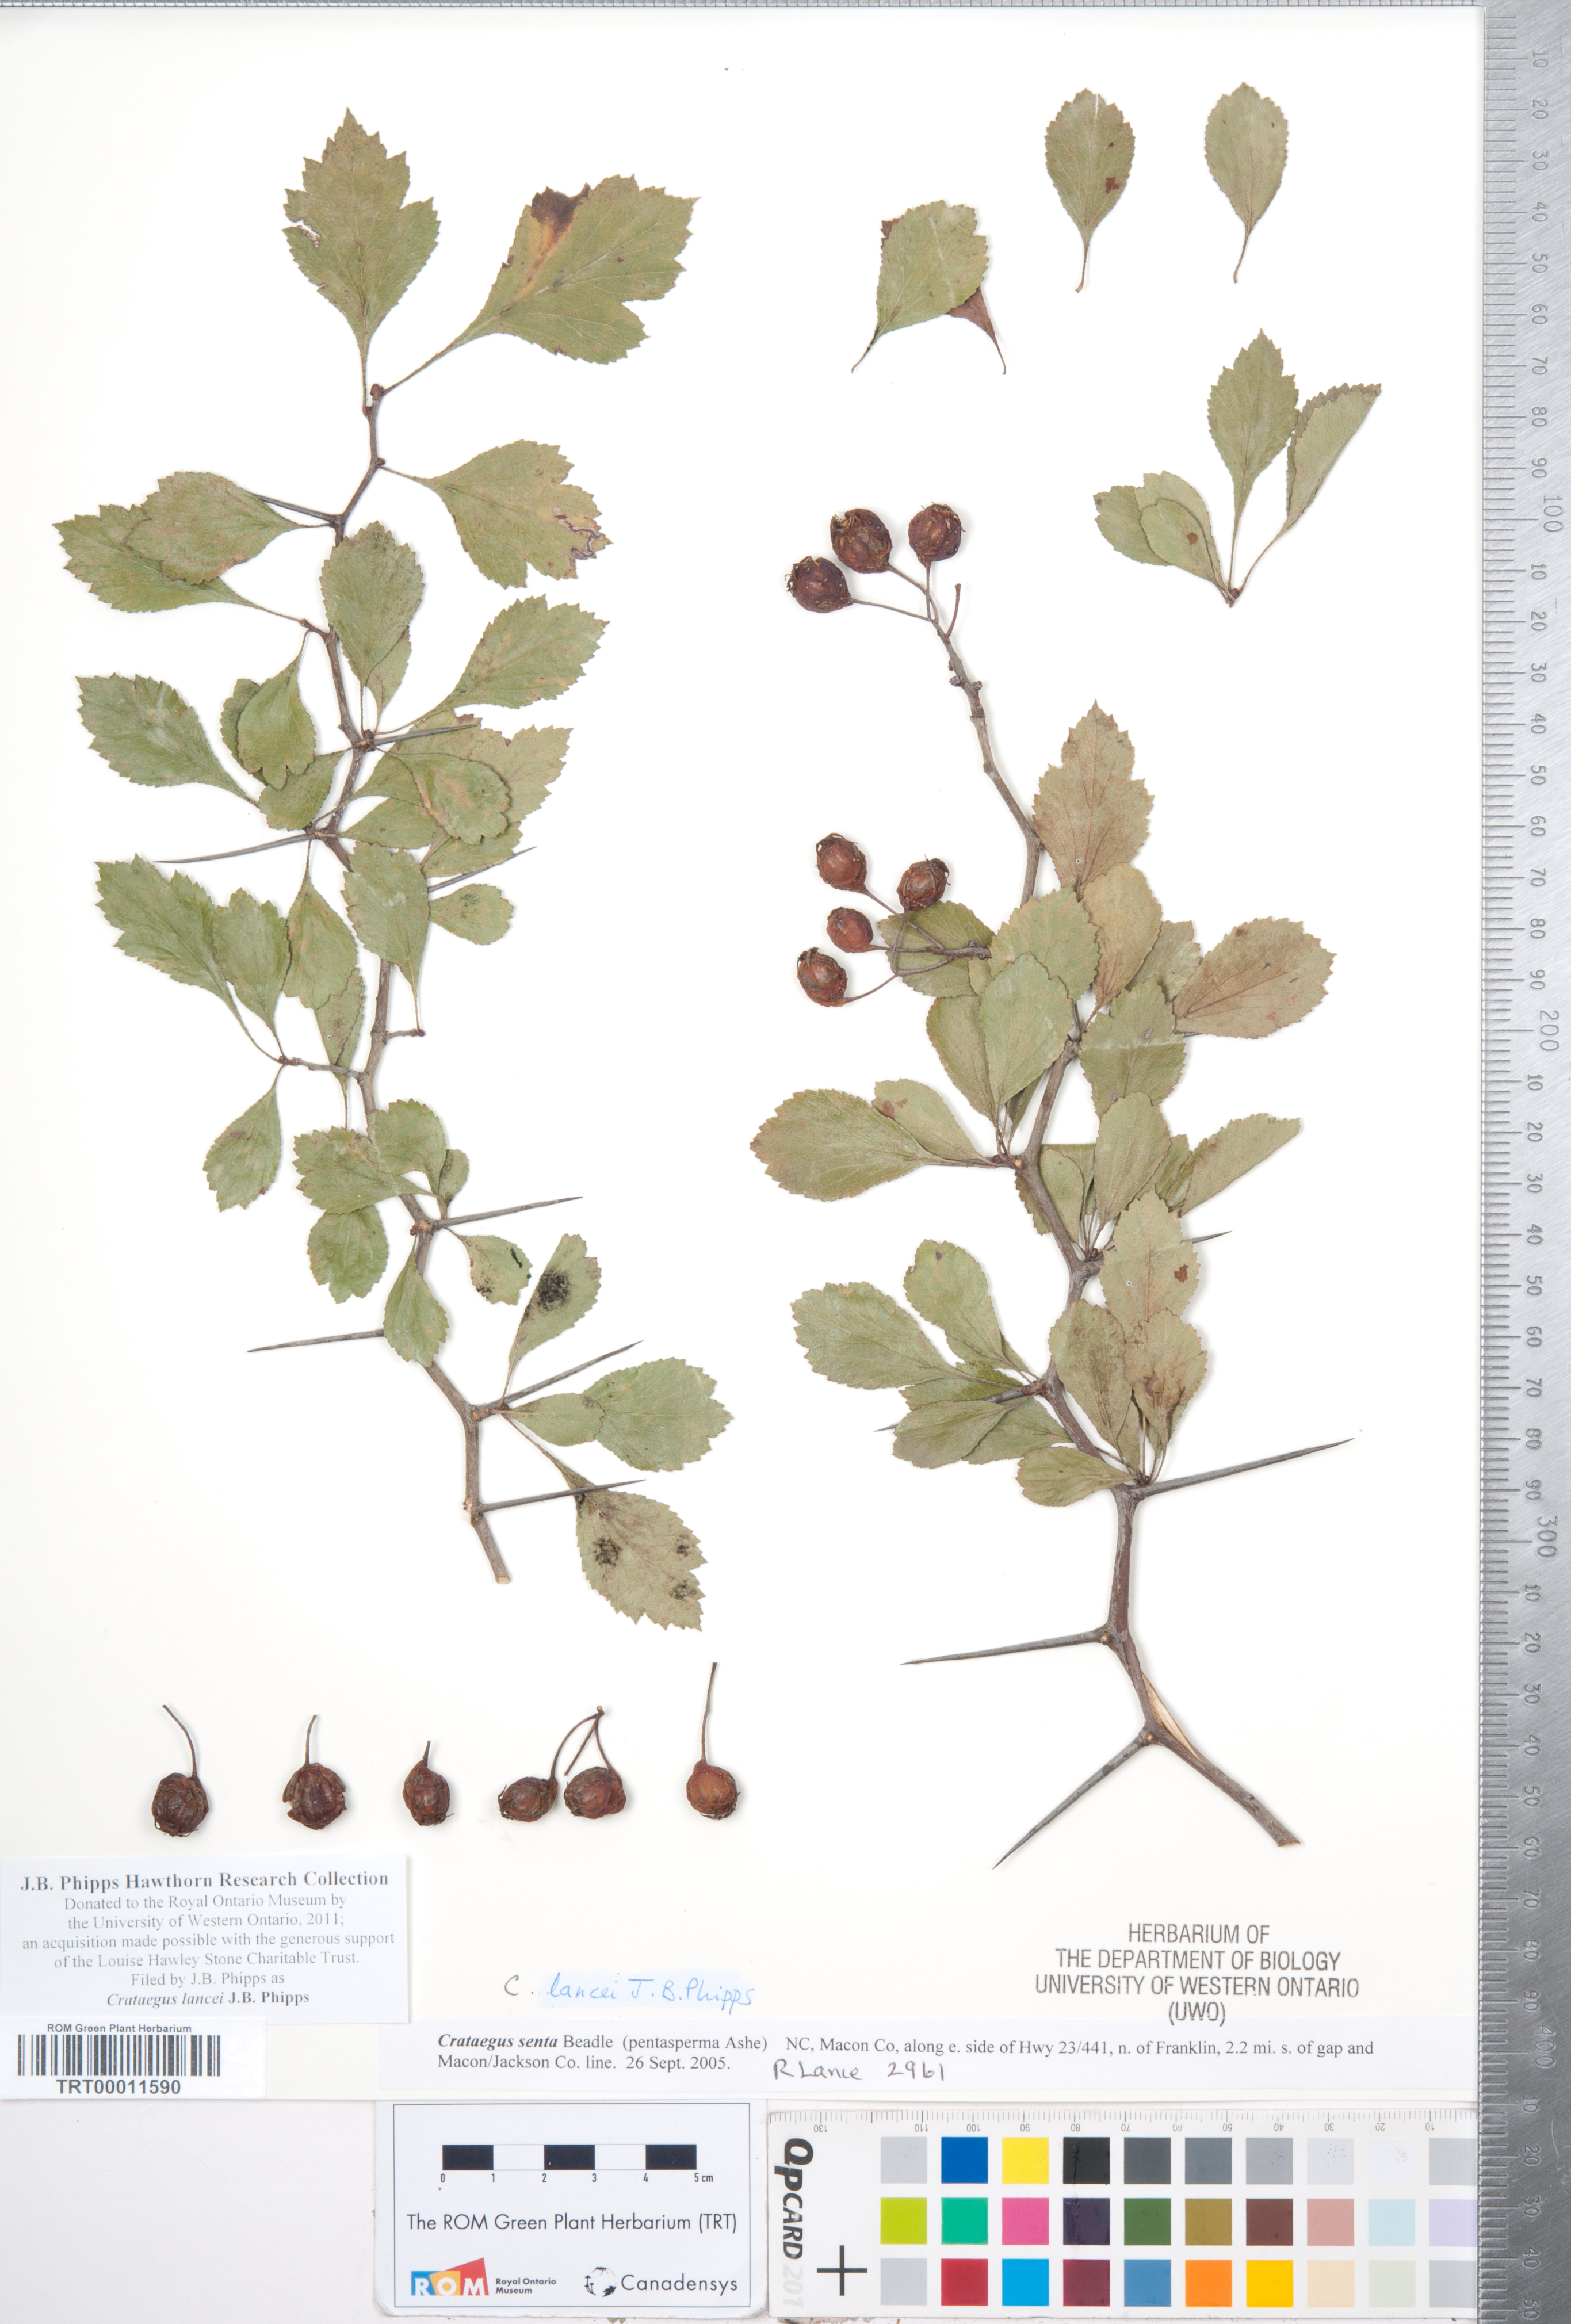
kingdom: Plantae
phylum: Tracheophyta
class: Magnoliopsida
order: Rosales
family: Rosaceae
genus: Crataegus
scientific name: Crataegus senta
